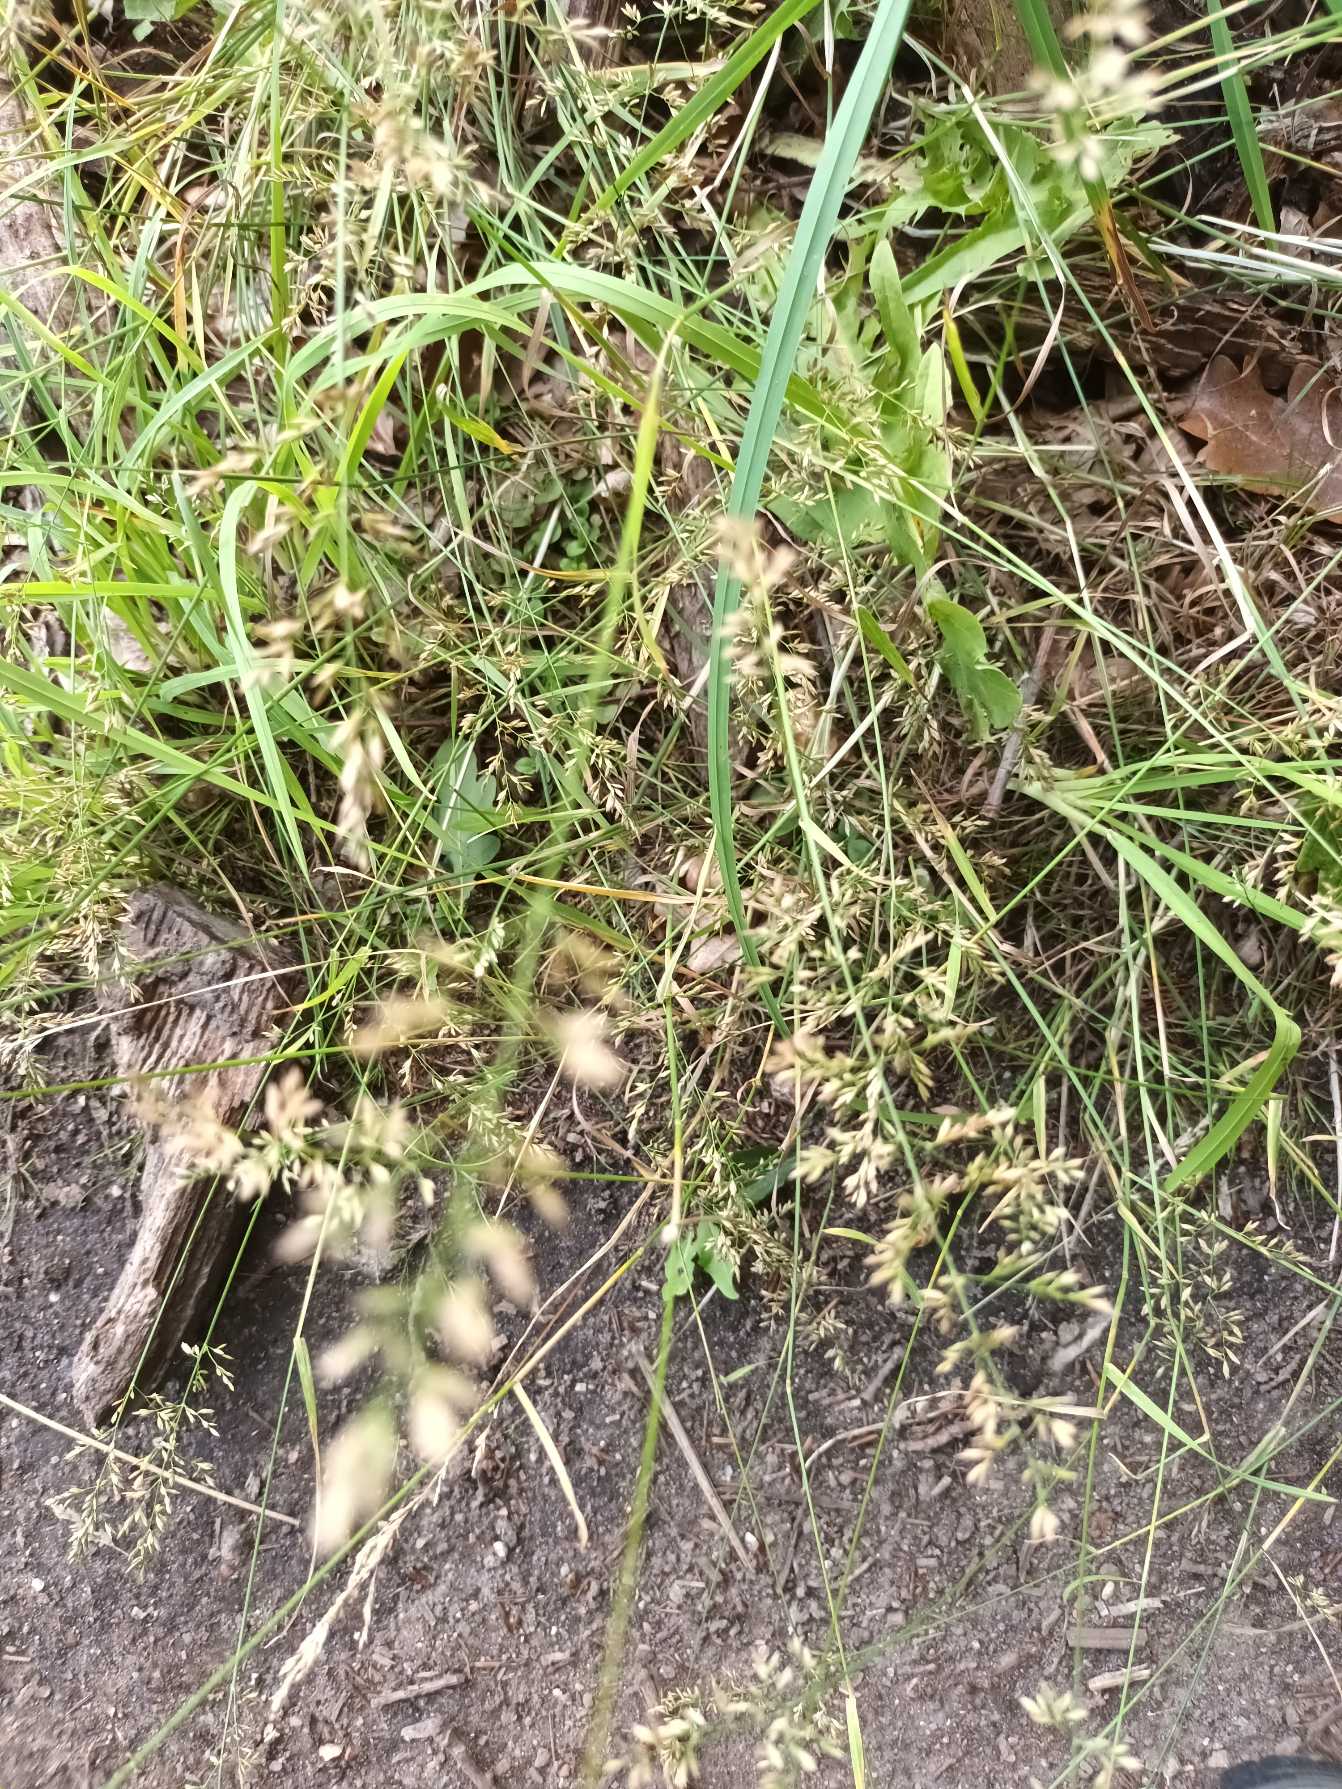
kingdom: Plantae
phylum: Tracheophyta
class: Liliopsida
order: Poales
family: Poaceae
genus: Poa
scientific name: Poa compressa
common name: Fladstrået rapgræs
